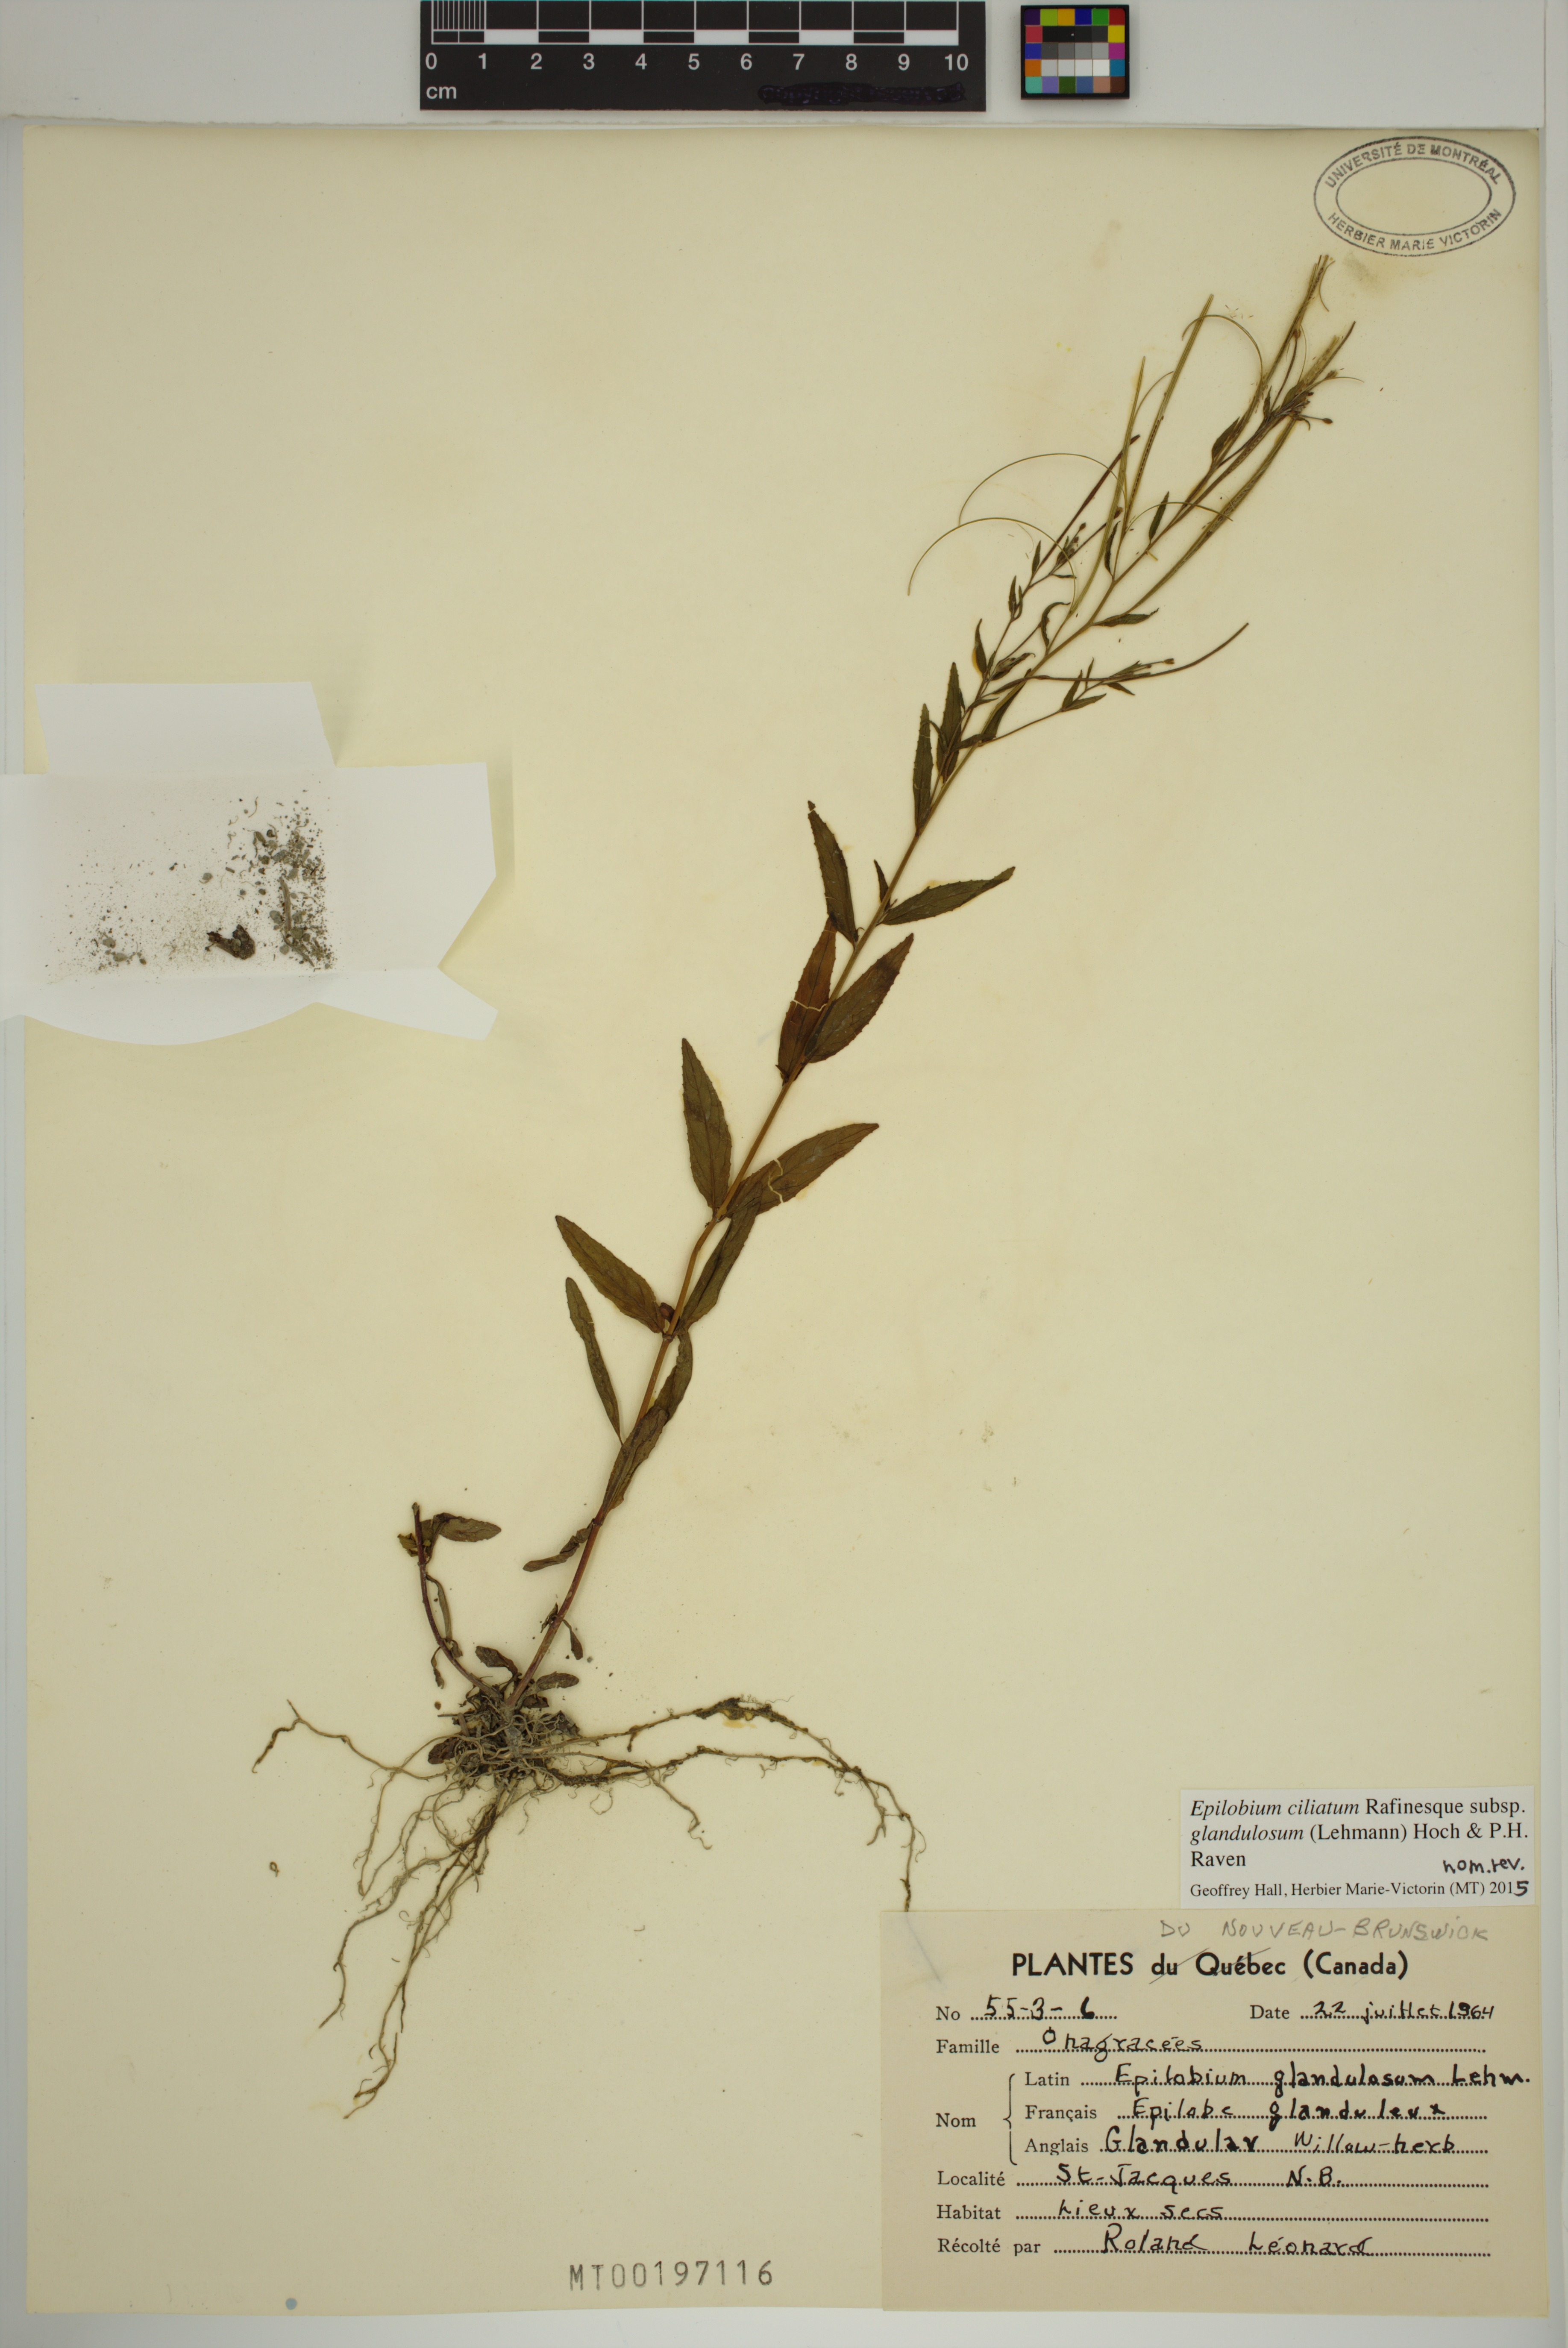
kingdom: Plantae
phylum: Tracheophyta
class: Magnoliopsida
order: Myrtales
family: Onagraceae
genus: Epilobium
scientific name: Epilobium ciliatum
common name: American willowherb
